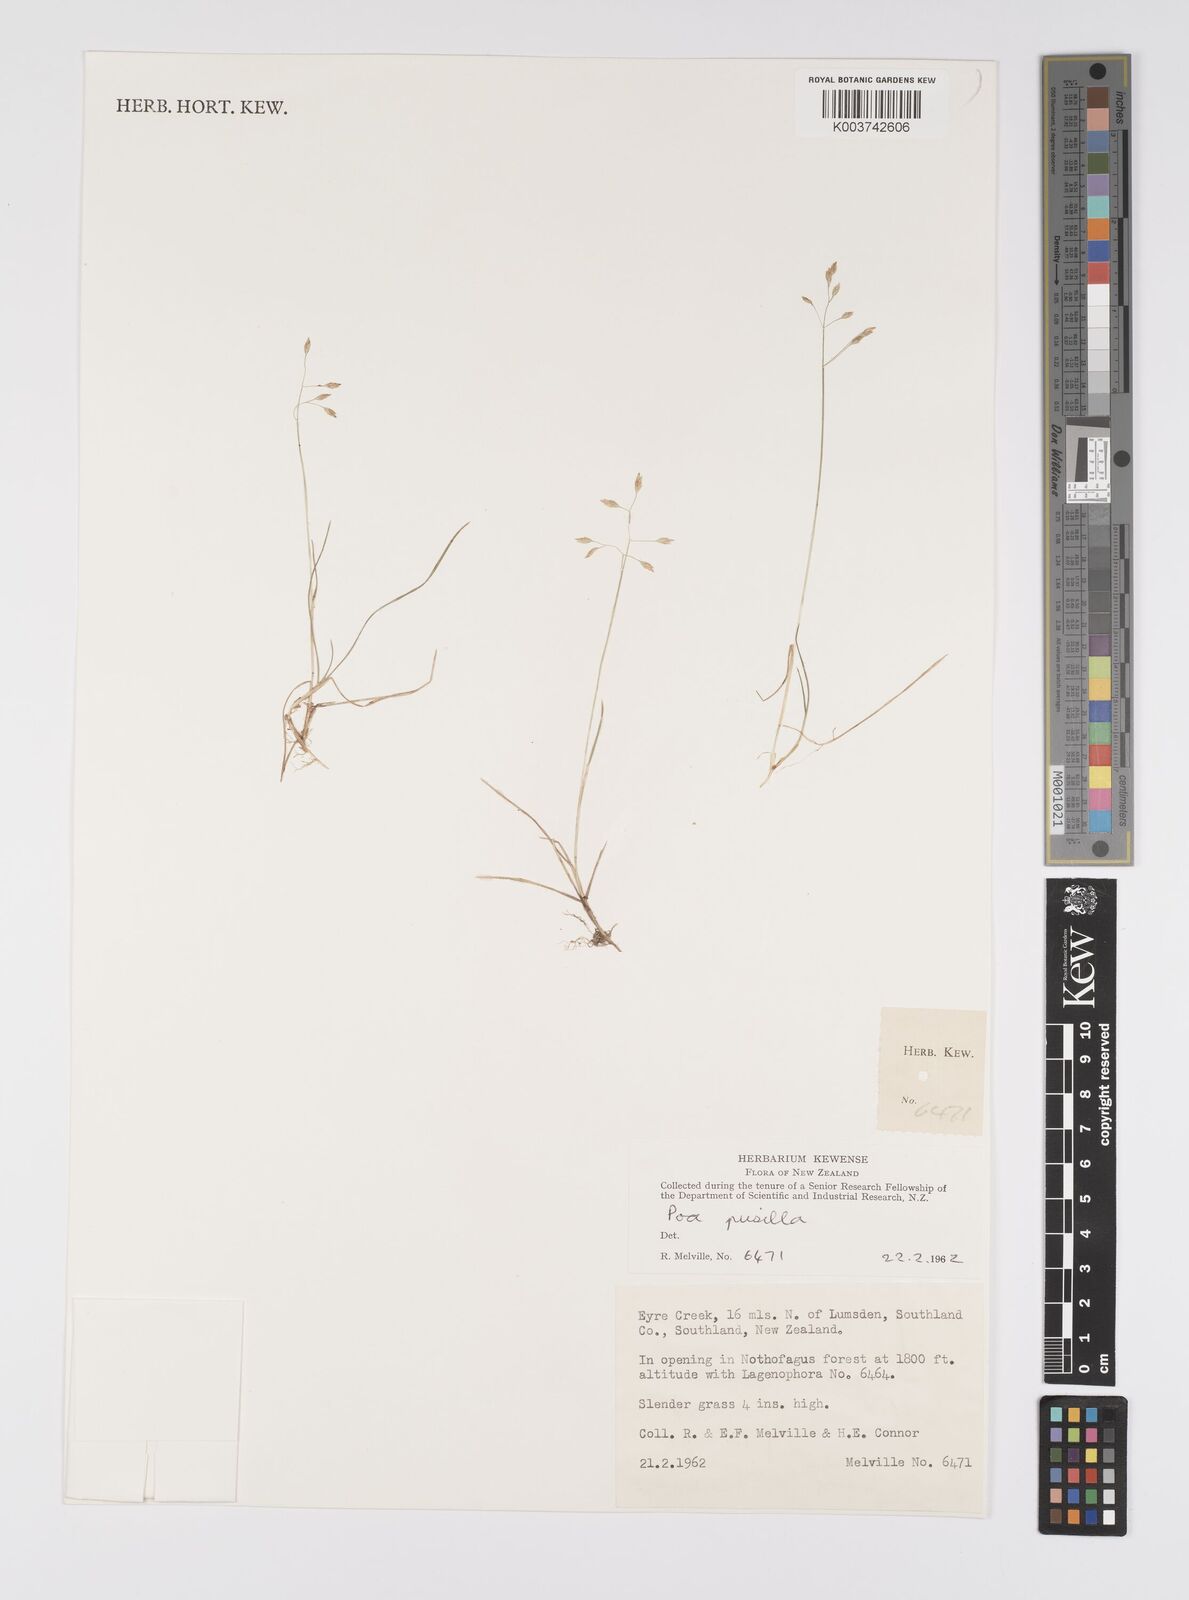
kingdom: Plantae
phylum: Tracheophyta
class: Liliopsida
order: Poales
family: Poaceae
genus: Poa
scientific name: Poa anceps
